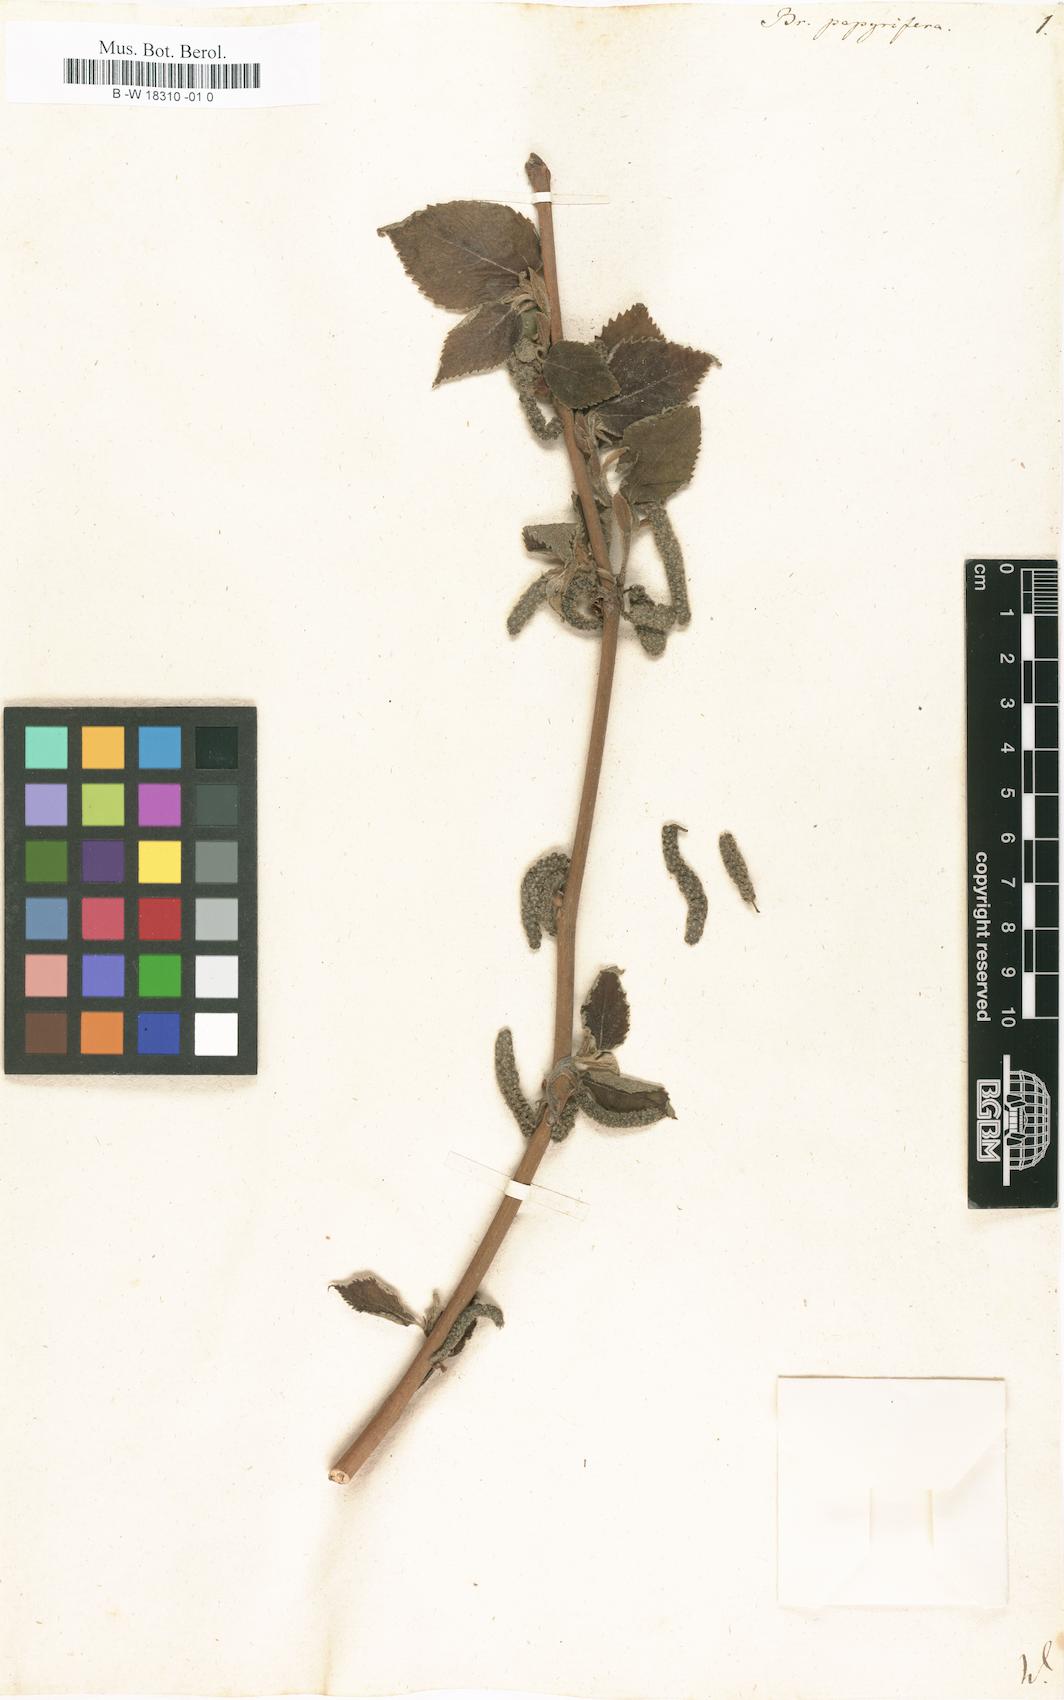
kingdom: Plantae
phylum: Tracheophyta
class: Magnoliopsida
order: Rosales
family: Moraceae
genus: Broussonetia
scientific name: Broussonetia papyrifera
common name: Paper mulberry
